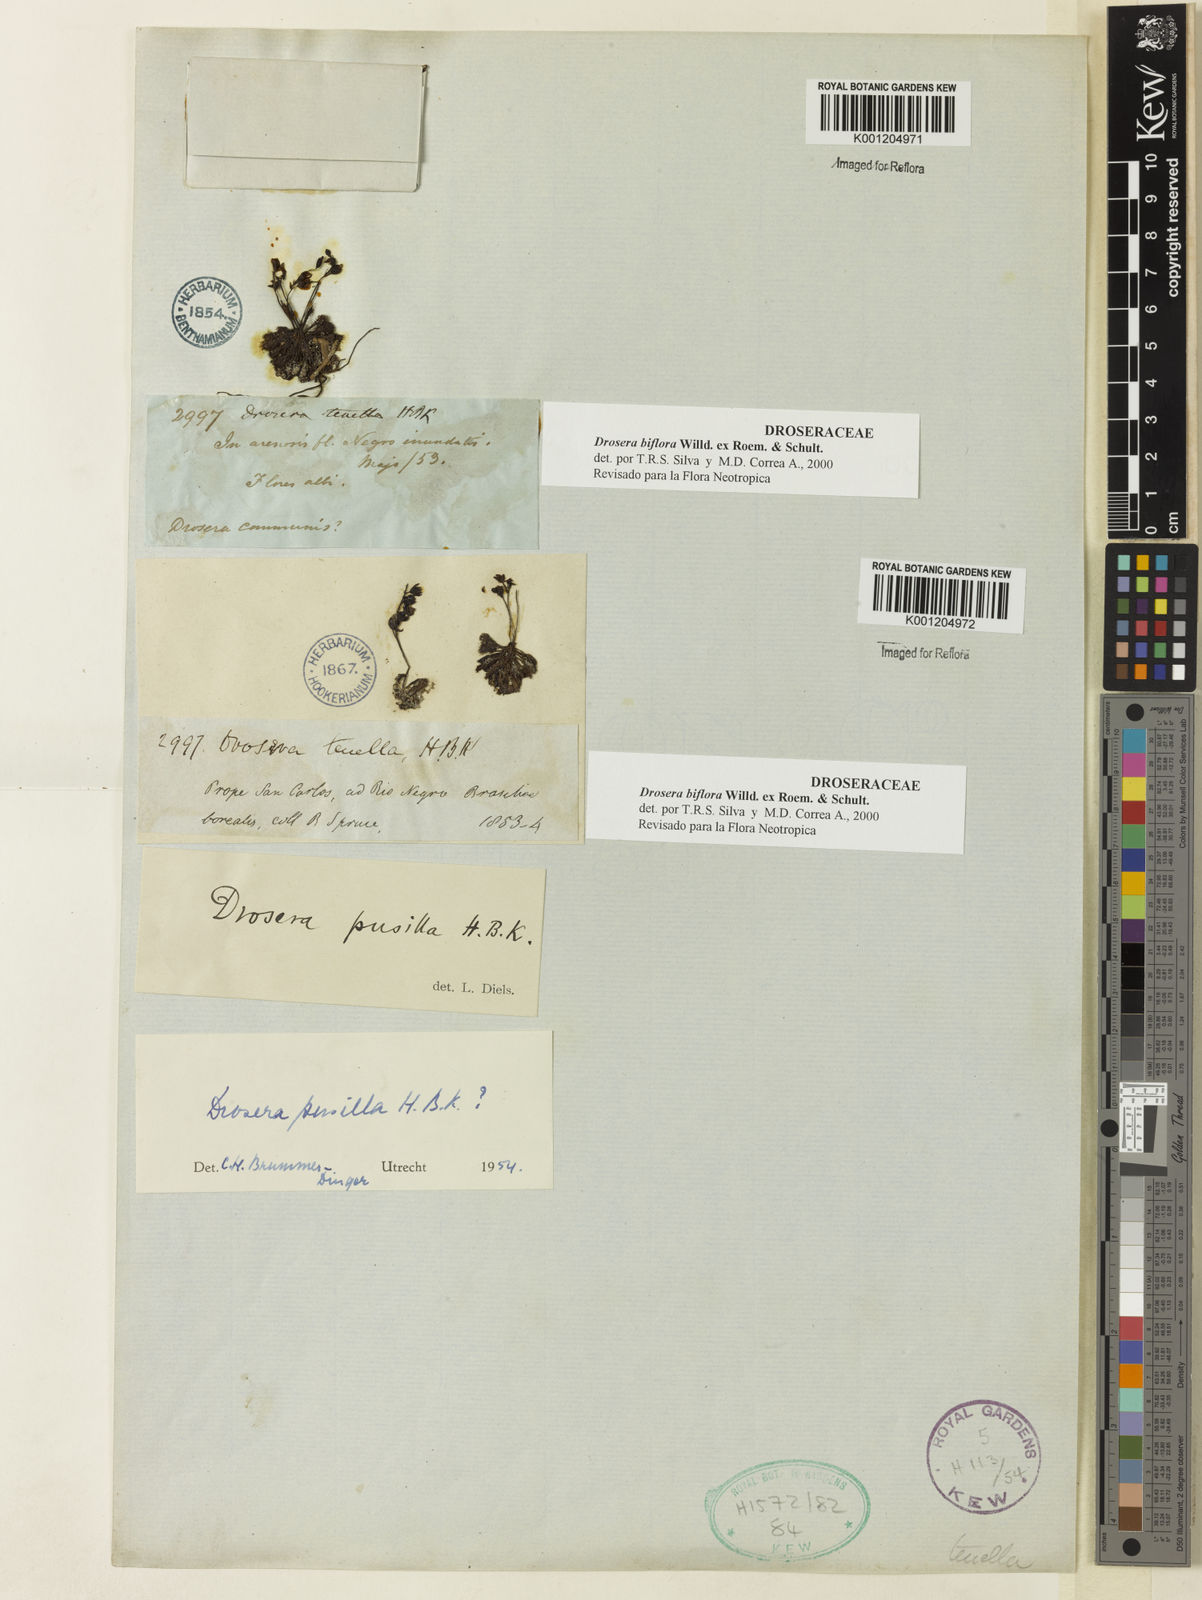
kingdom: Plantae
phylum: Tracheophyta
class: Magnoliopsida
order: Caryophyllales
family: Droseraceae
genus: Drosera
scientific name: Drosera biflora
